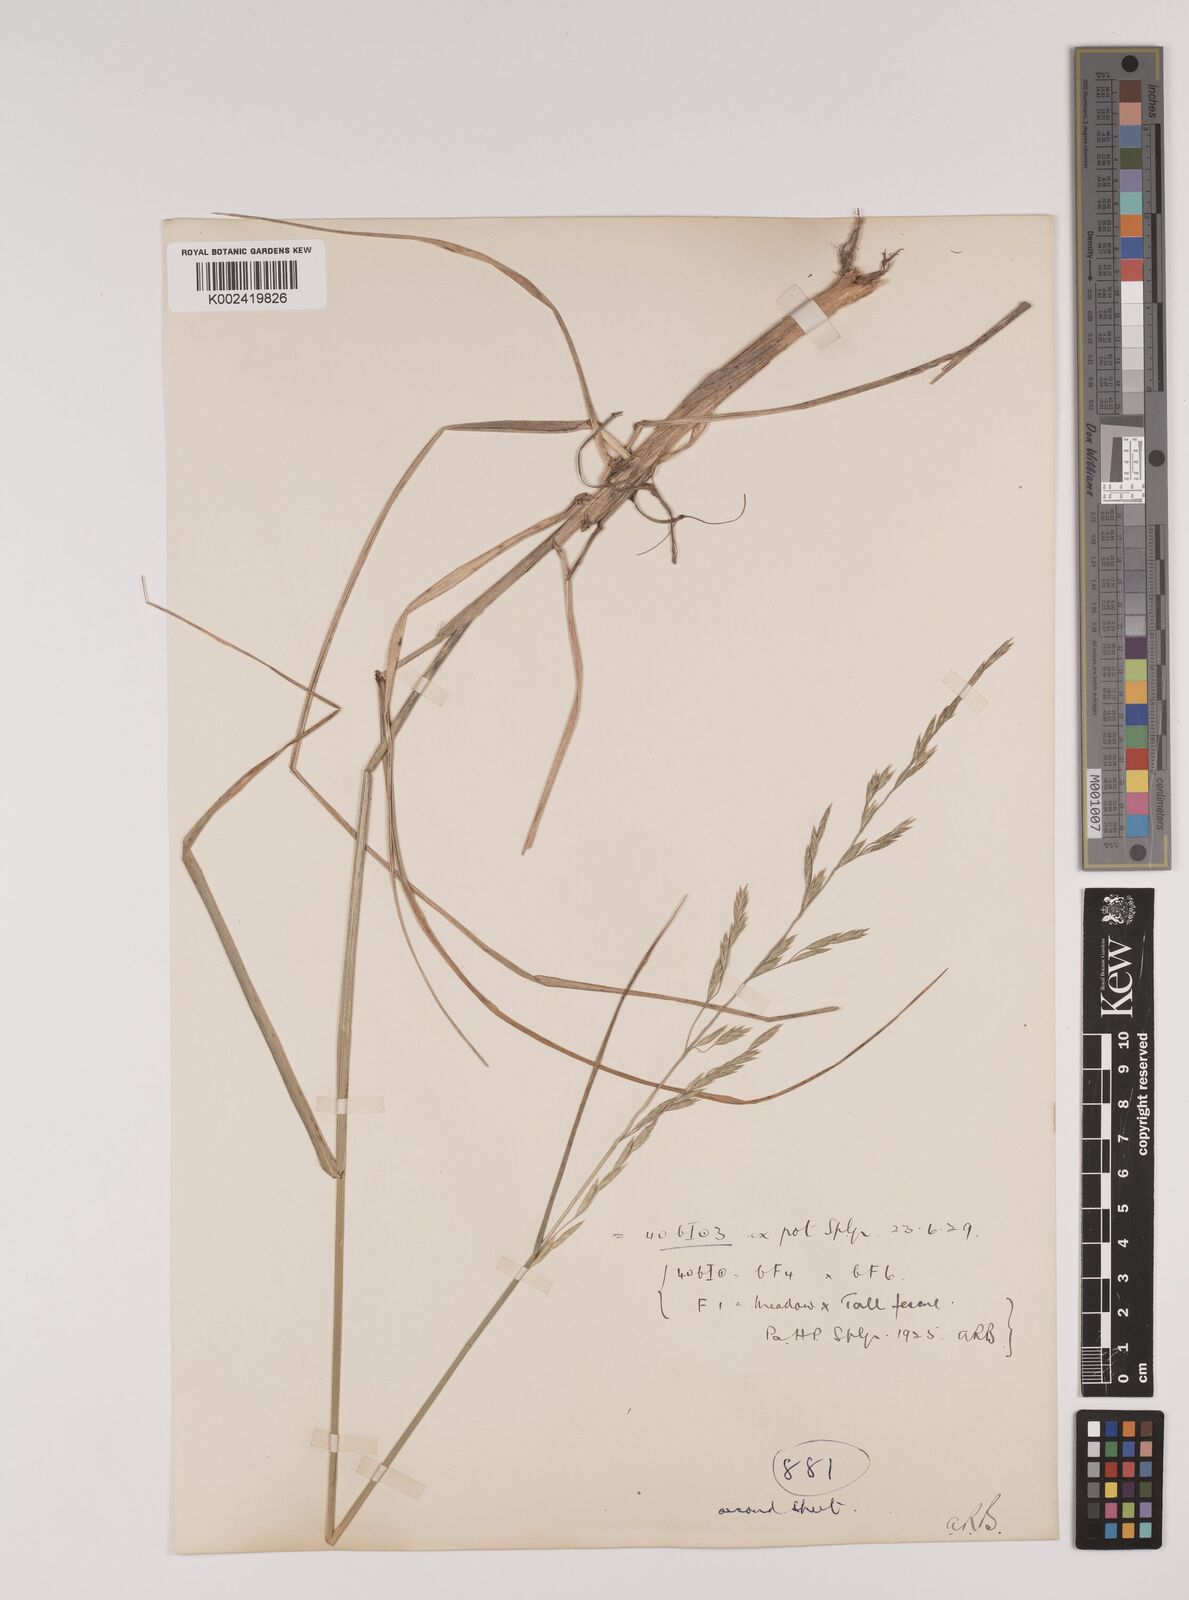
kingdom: Plantae
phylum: Tracheophyta
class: Liliopsida
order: Poales
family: Poaceae
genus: Festuca
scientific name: Festuca rubra
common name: Red fescue
